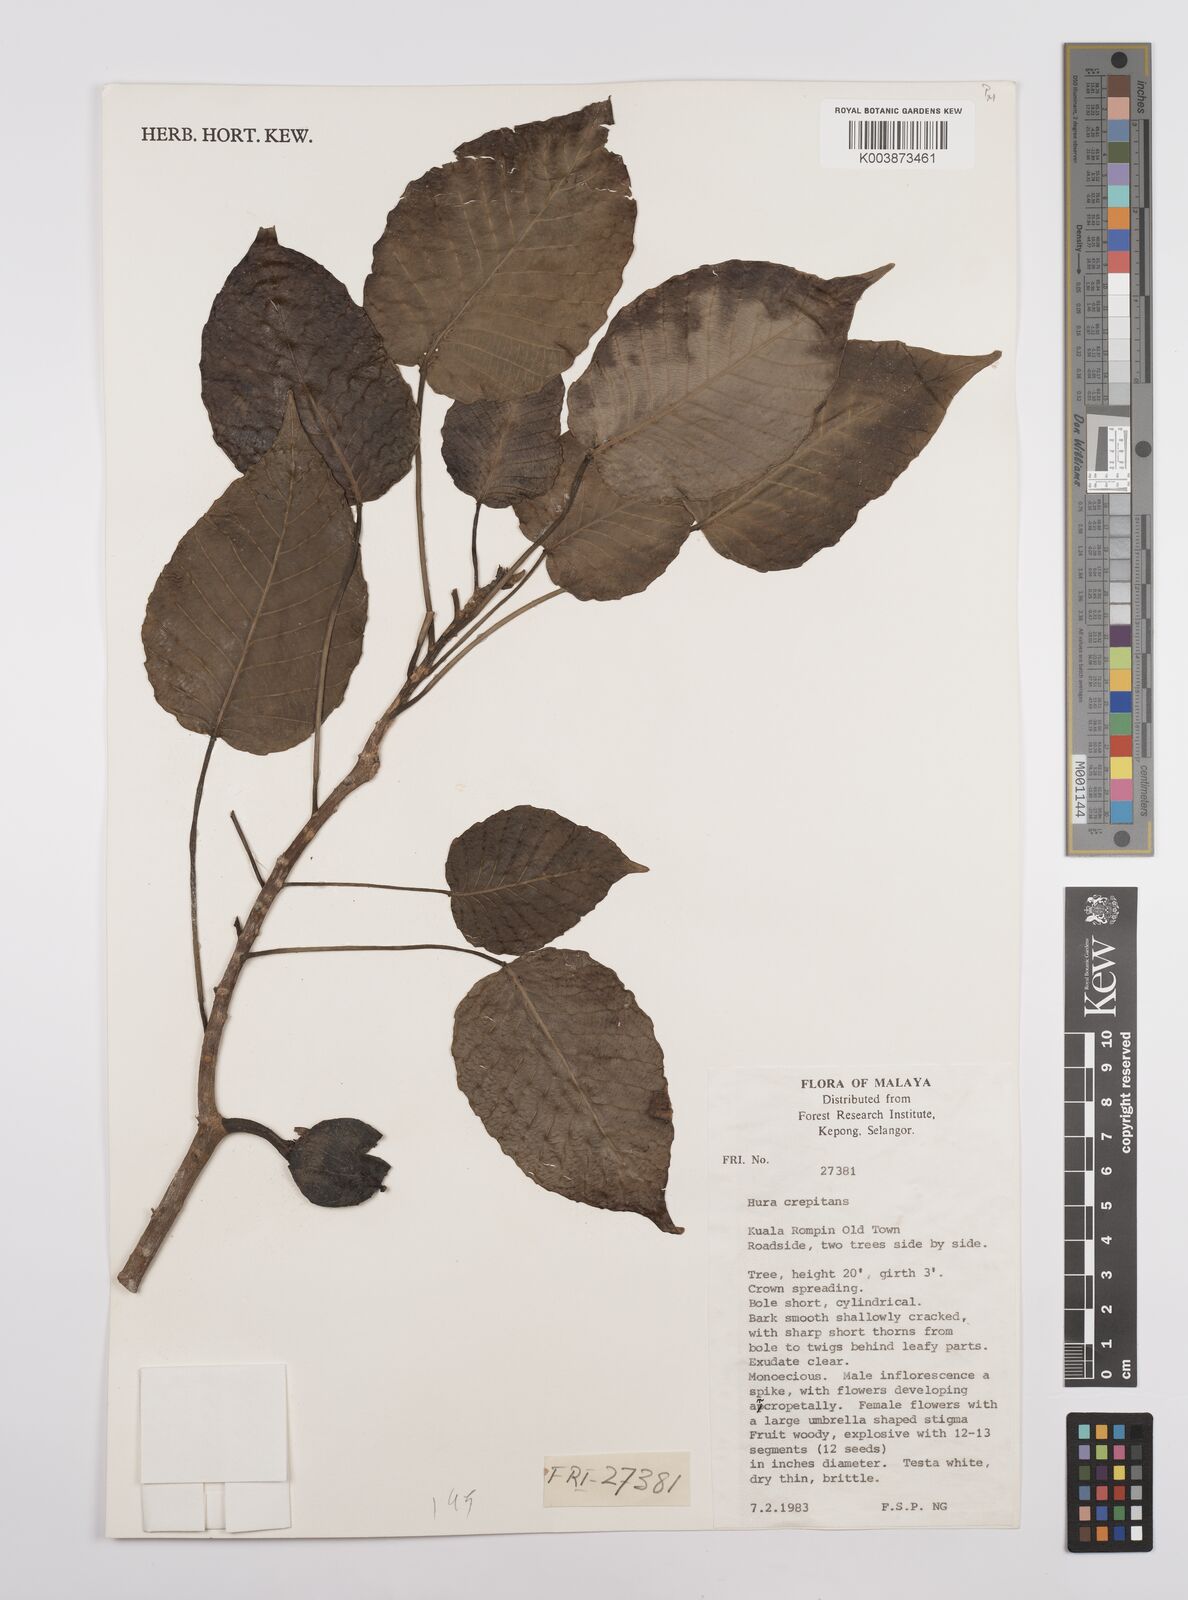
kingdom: Plantae
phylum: Tracheophyta
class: Magnoliopsida
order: Malpighiales
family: Euphorbiaceae
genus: Hura
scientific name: Hura crepitans
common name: Sandboxtree
